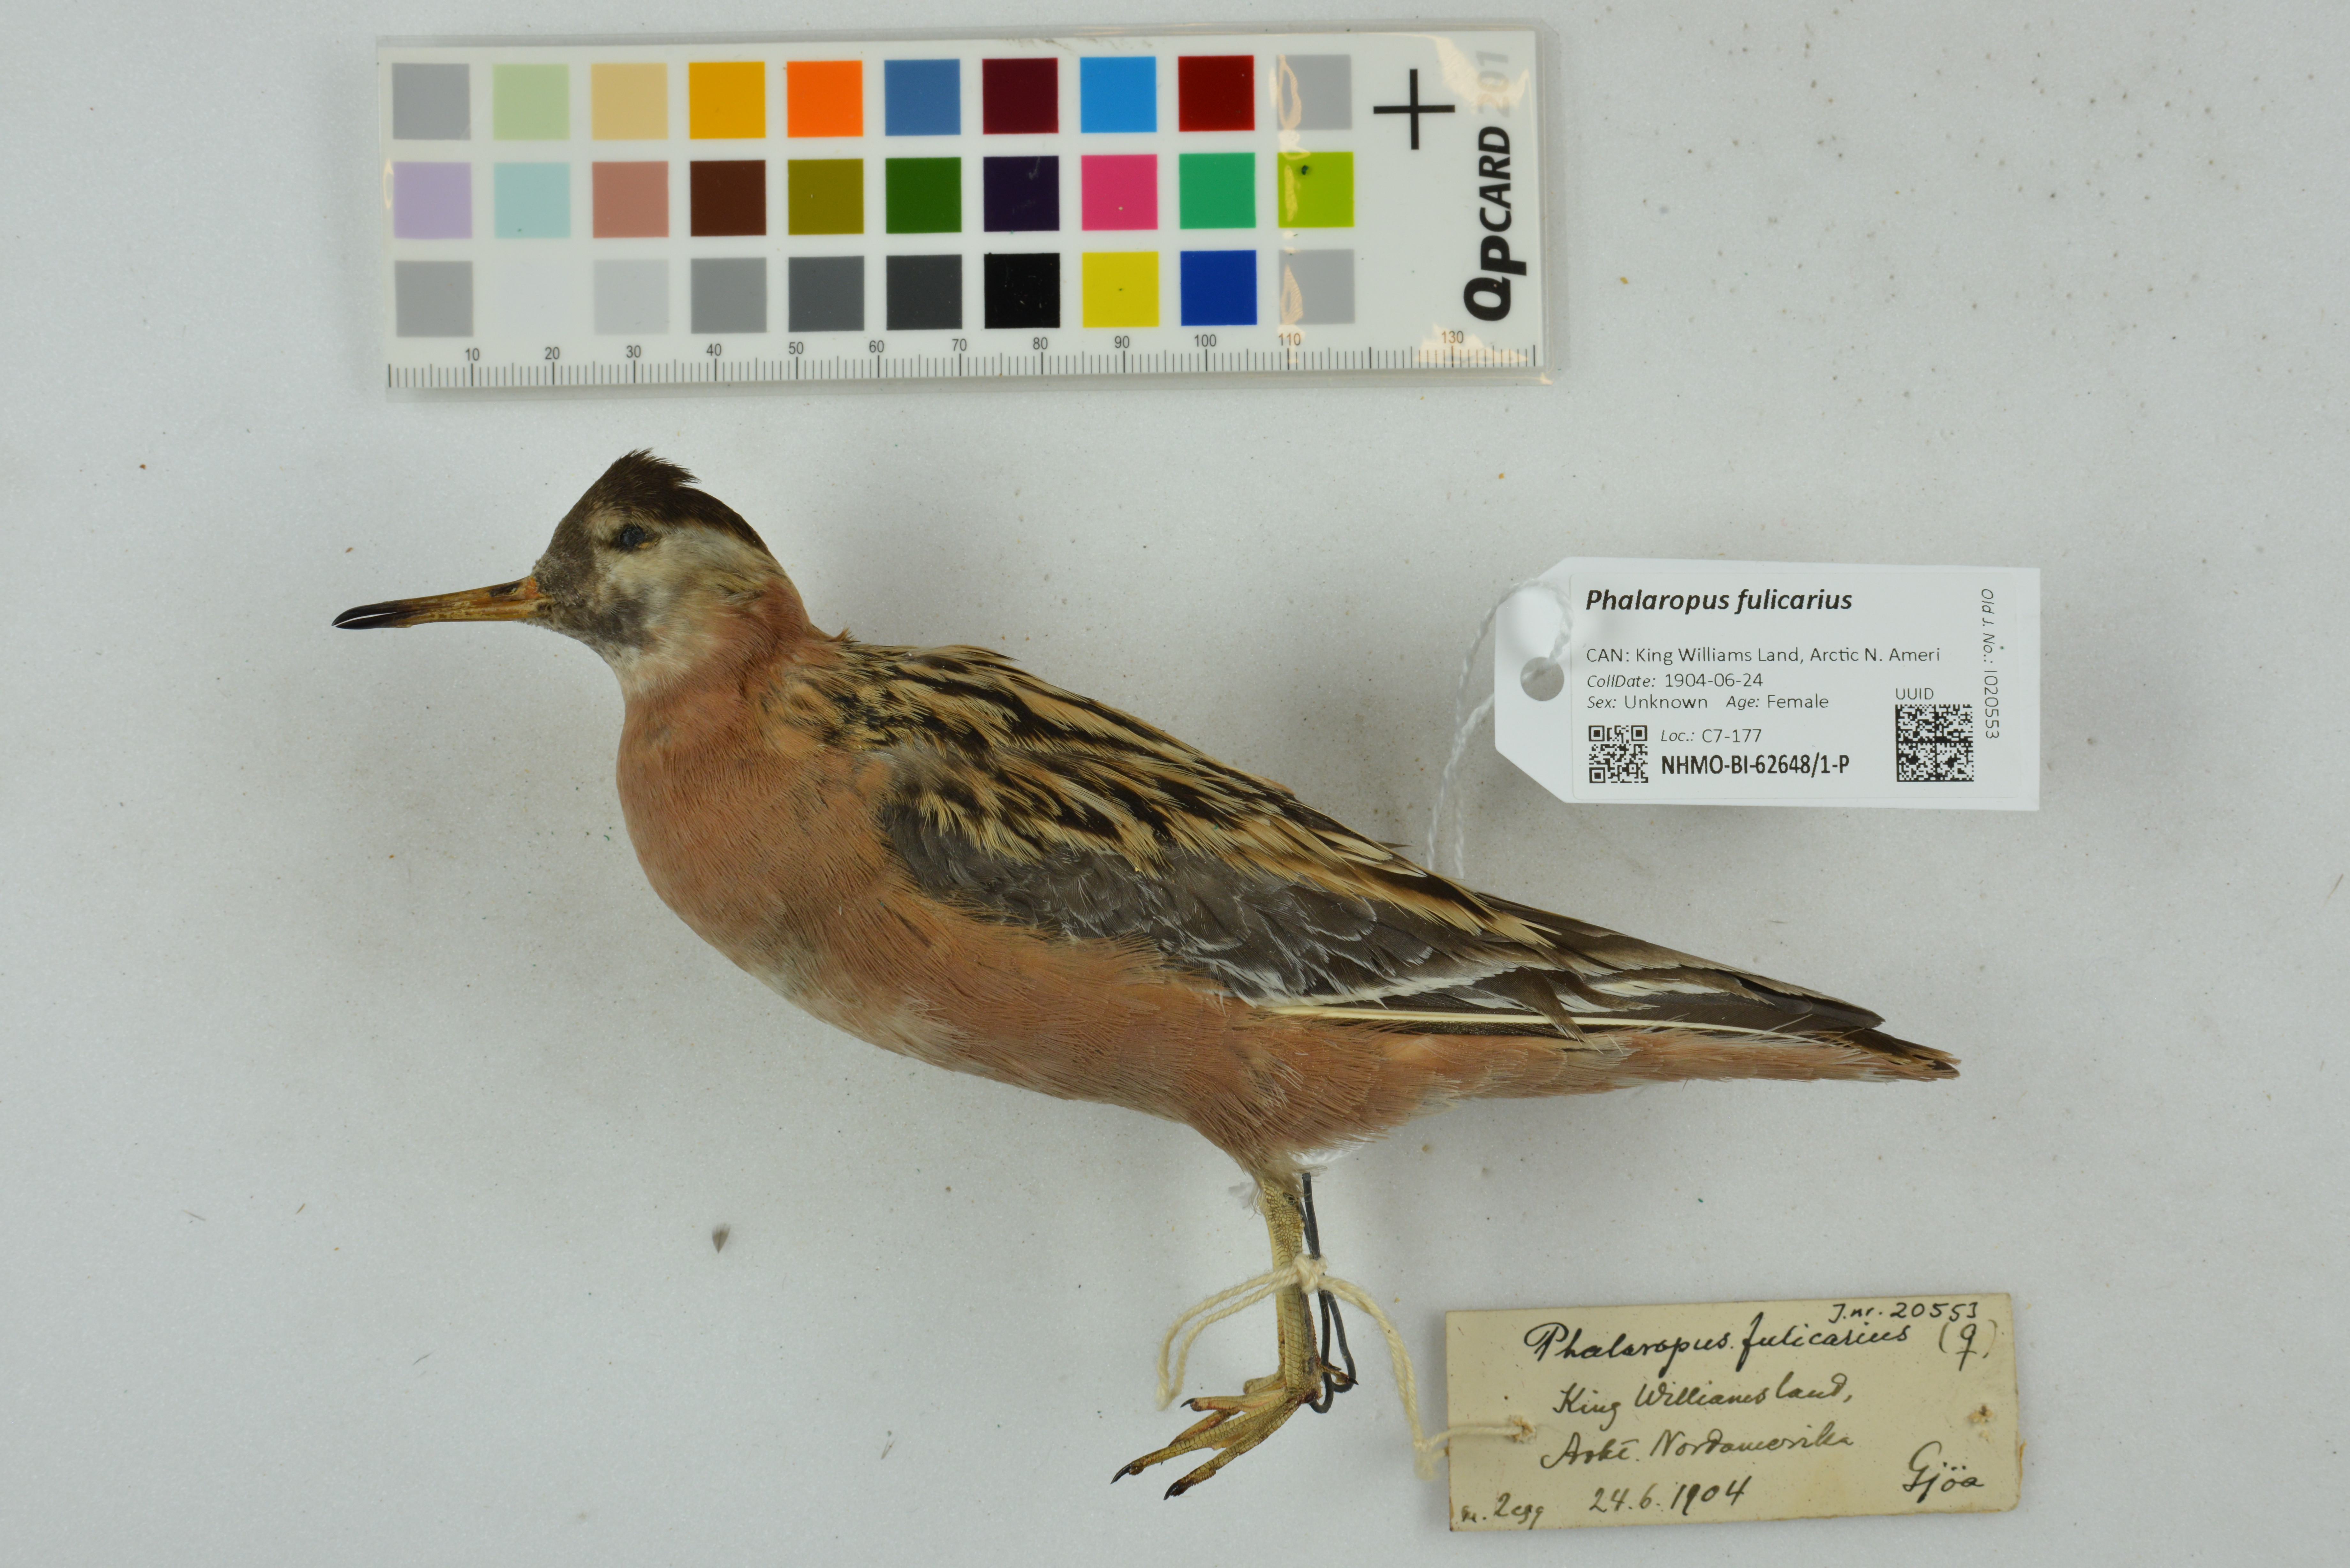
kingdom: Animalia
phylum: Chordata
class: Aves
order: Charadriiformes
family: Scolopacidae
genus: Phalaropus
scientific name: Phalaropus fulicarius
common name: Red phalarope
